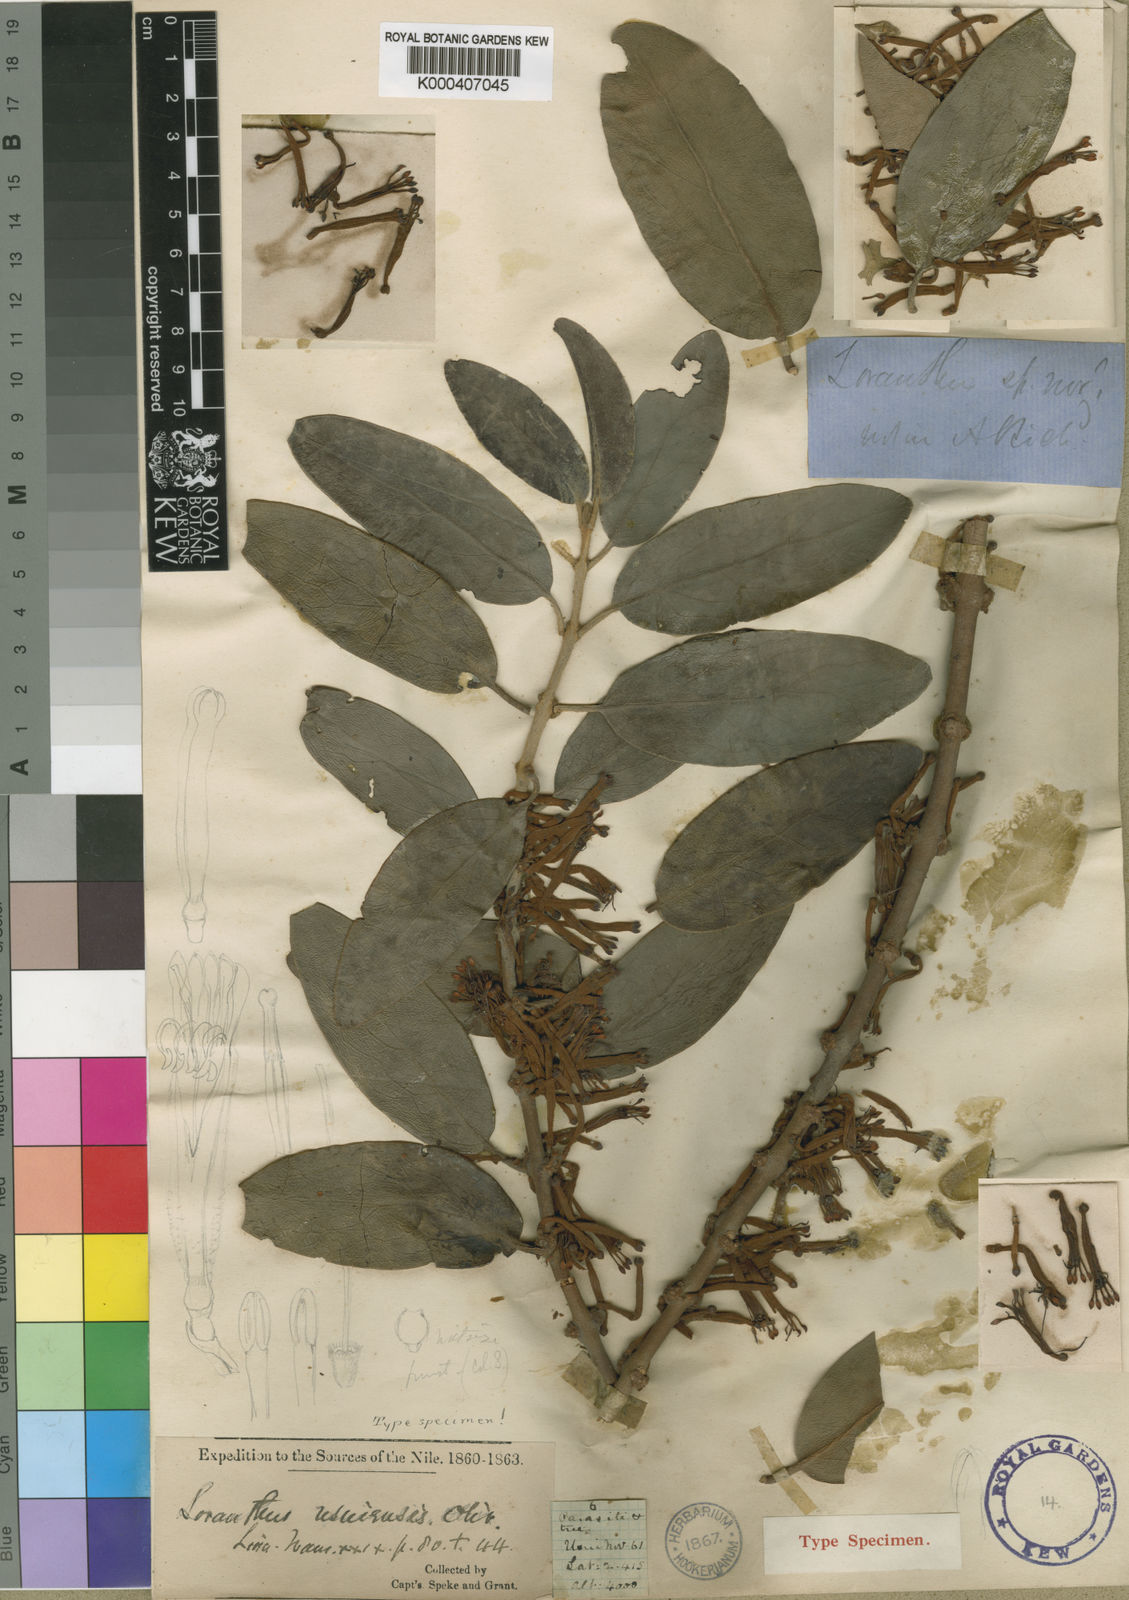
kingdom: Plantae
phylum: Tracheophyta
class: Magnoliopsida
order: Santalales
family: Loranthaceae
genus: Phragmanthera
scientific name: Phragmanthera usuiensis
